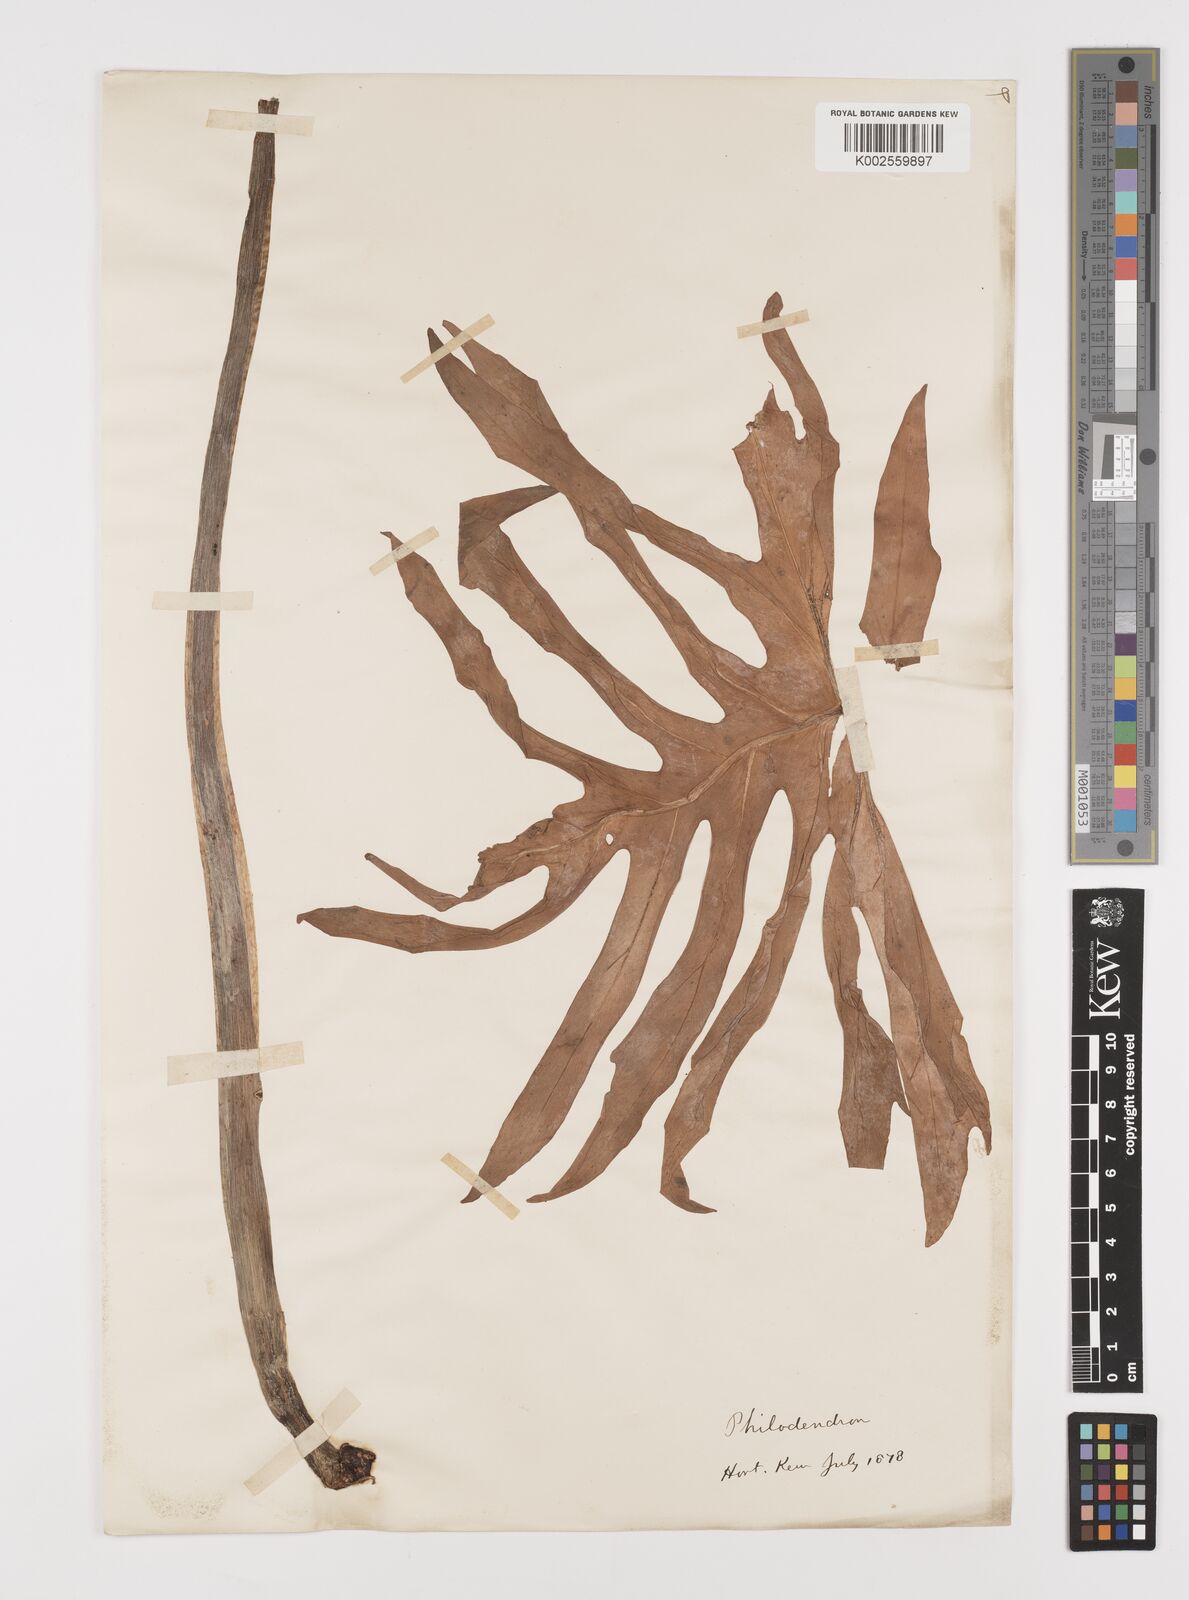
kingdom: Plantae
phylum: Tracheophyta
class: Liliopsida
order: Alismatales
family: Araceae
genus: Philodendron
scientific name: Philodendron
